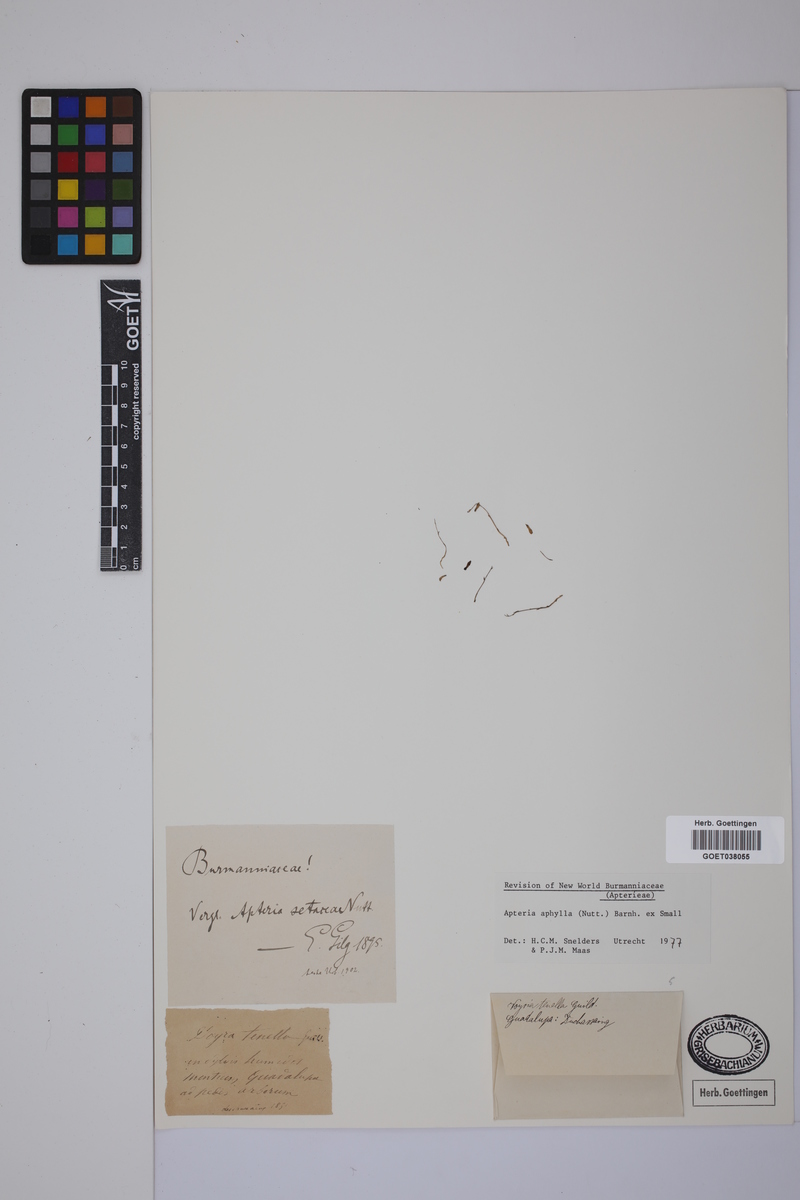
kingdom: Plantae
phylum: Tracheophyta
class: Liliopsida
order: Dioscoreales
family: Burmanniaceae
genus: Apteria
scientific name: Apteria aphylla
